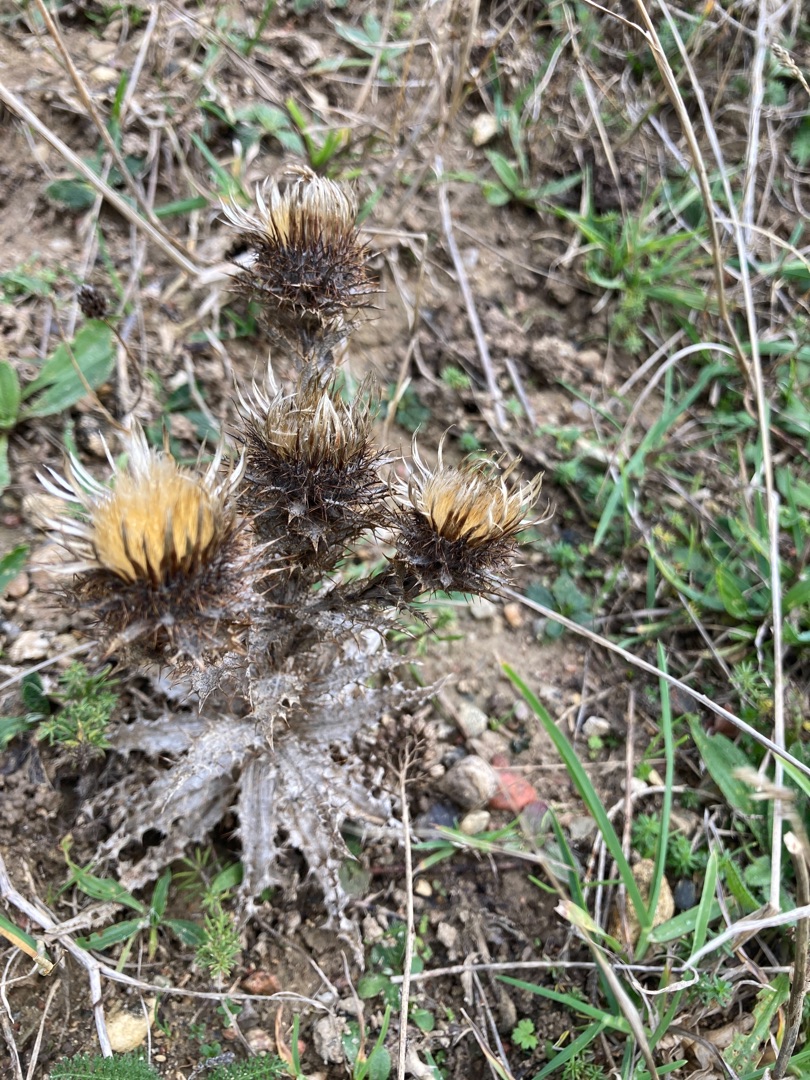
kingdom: Plantae
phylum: Tracheophyta
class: Magnoliopsida
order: Asterales
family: Asteraceae
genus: Carlina
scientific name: Carlina vulgaris
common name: Bakketidsel
